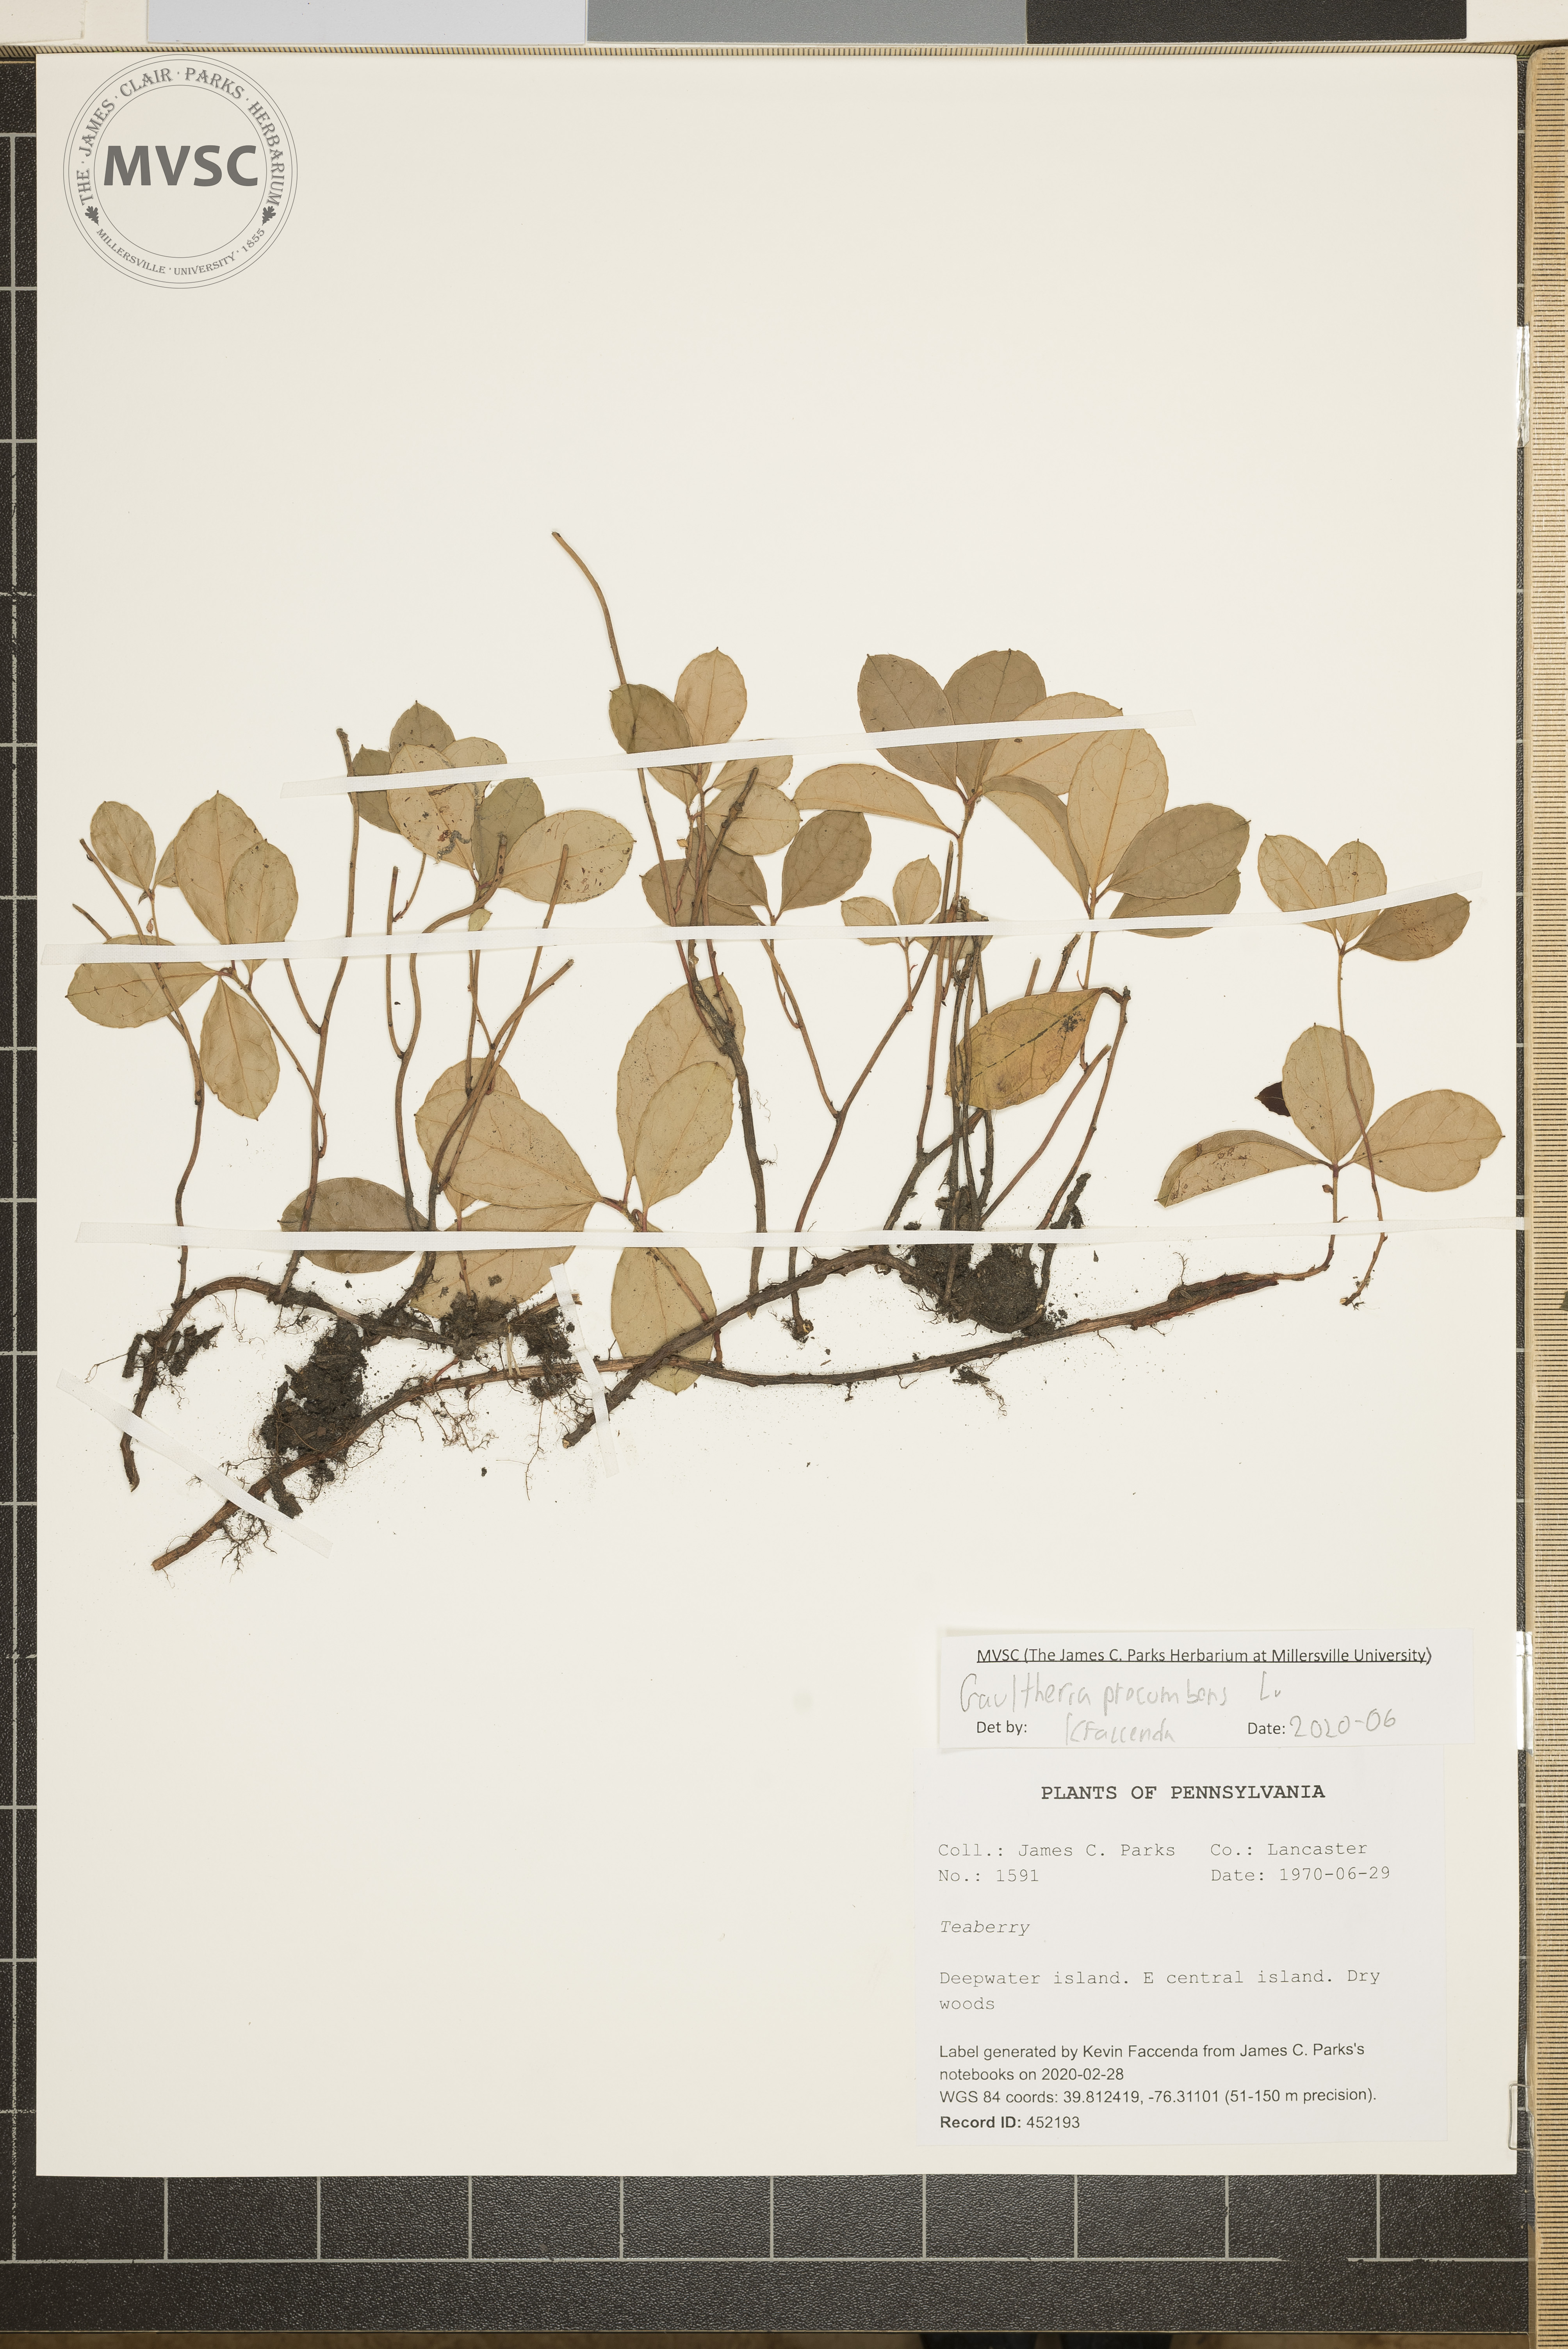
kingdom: Plantae
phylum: Tracheophyta
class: Magnoliopsida
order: Ericales
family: Ericaceae
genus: Gaultheria
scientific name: Gaultheria procumbens
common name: Checkerberry
